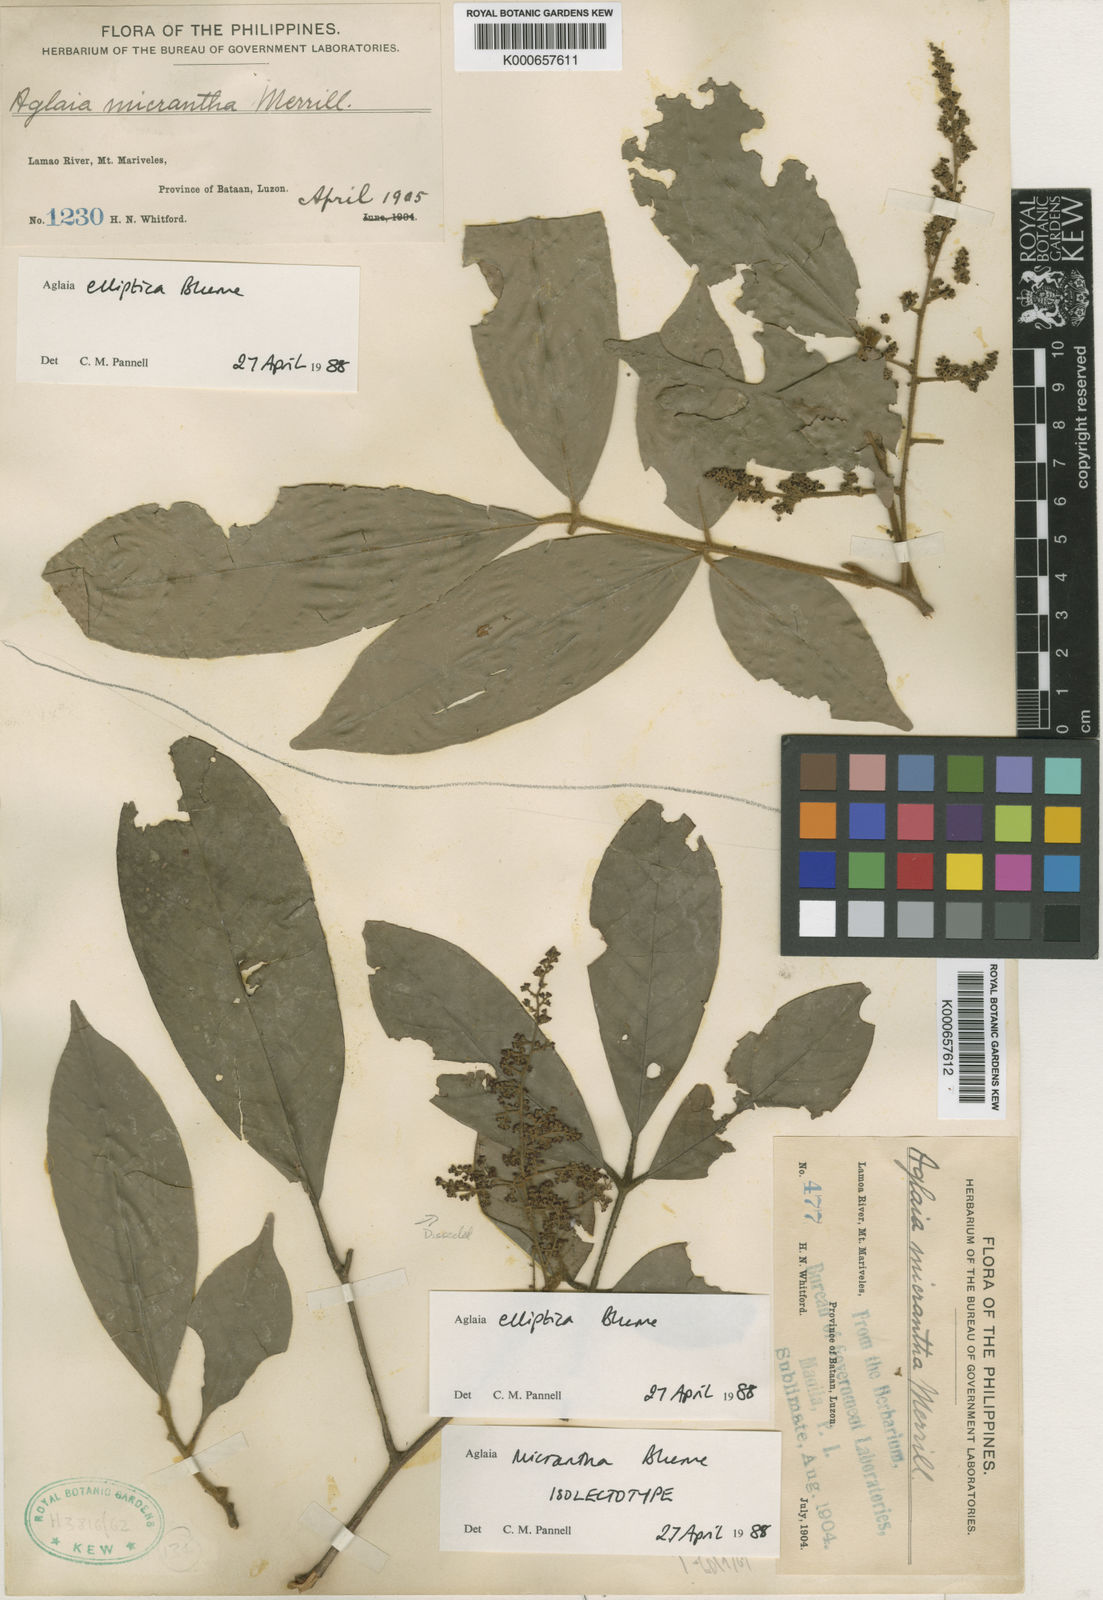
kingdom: Plantae
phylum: Tracheophyta
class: Magnoliopsida
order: Sapindales
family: Meliaceae
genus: Aglaia
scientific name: Aglaia elliptica
